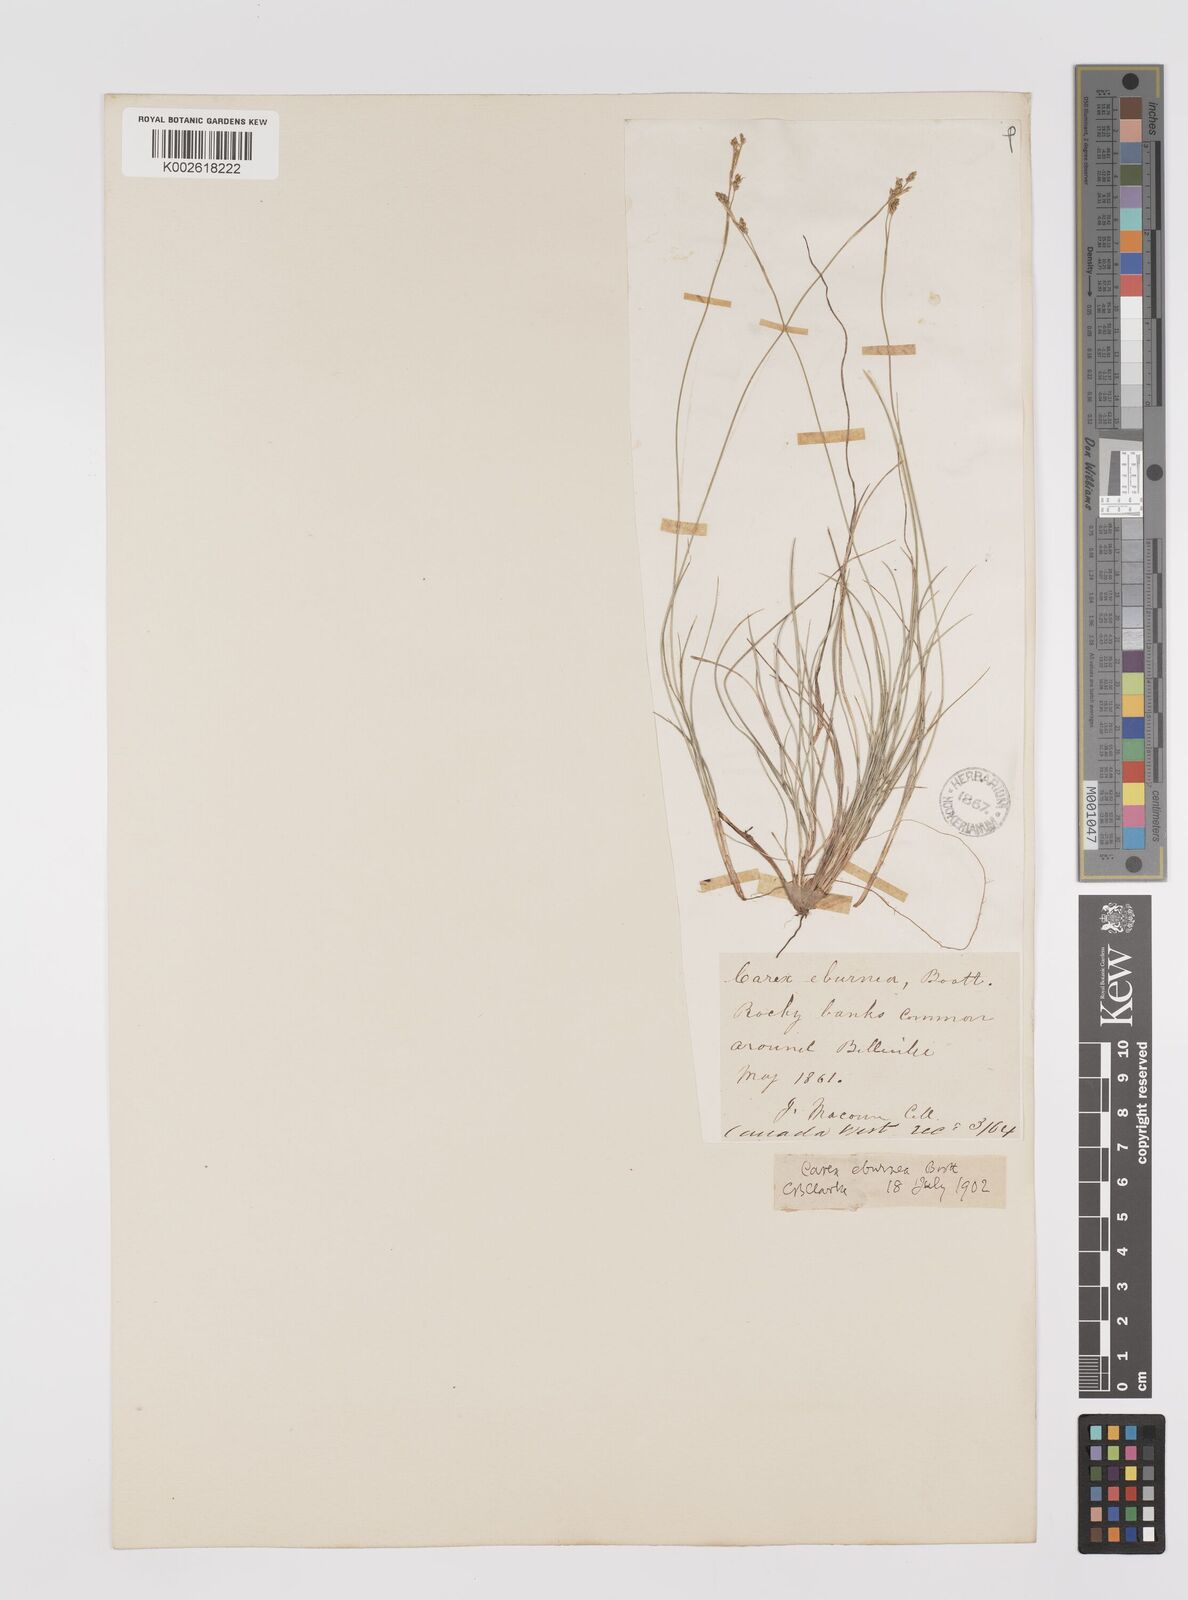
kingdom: Plantae
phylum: Tracheophyta
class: Liliopsida
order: Poales
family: Cyperaceae
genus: Carex
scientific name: Carex eburnea
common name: Bristle-leaved sedge
